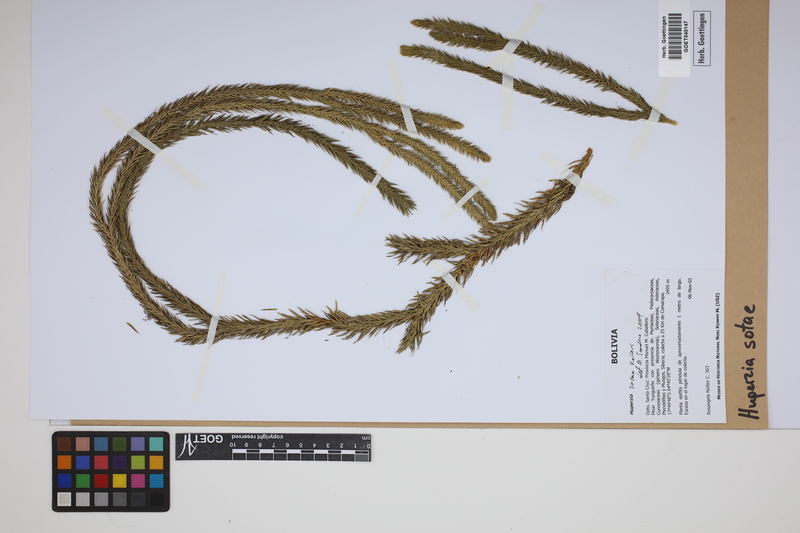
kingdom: Plantae
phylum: Tracheophyta
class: Lycopodiopsida
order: Lycopodiales
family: Lycopodiaceae
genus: Phlegmariurus
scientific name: Phlegmariurus sotae
